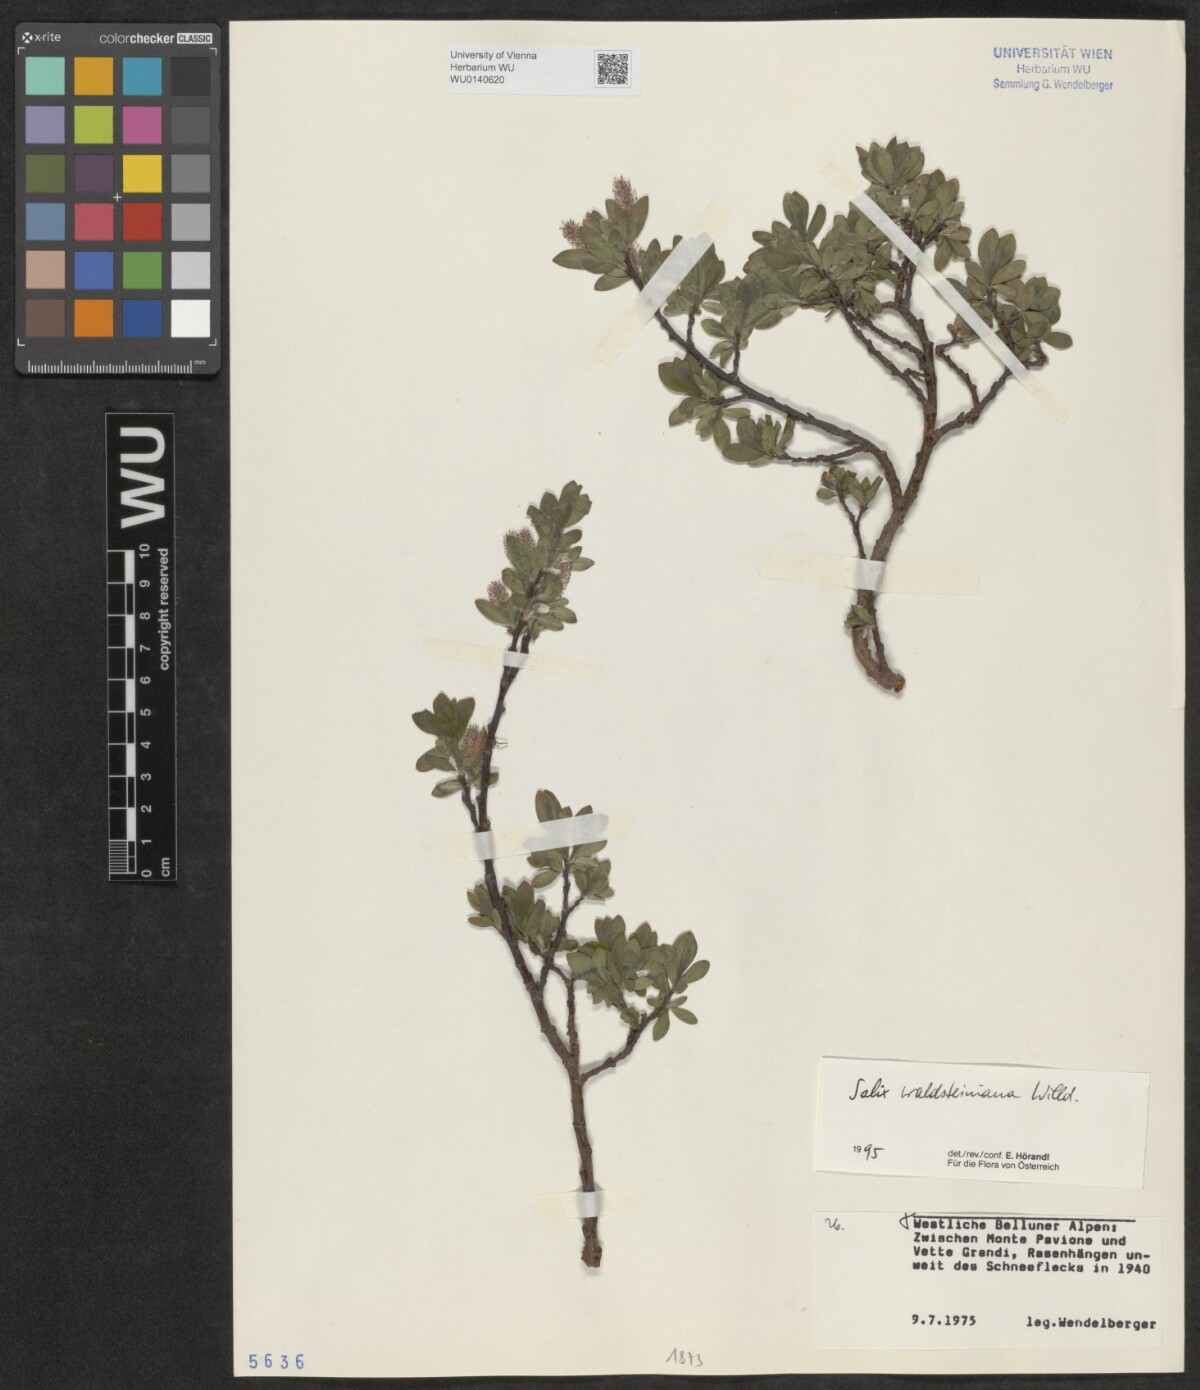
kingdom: Plantae
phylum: Tracheophyta
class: Magnoliopsida
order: Malpighiales
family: Salicaceae
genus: Salix
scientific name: Salix waldsteiniana
